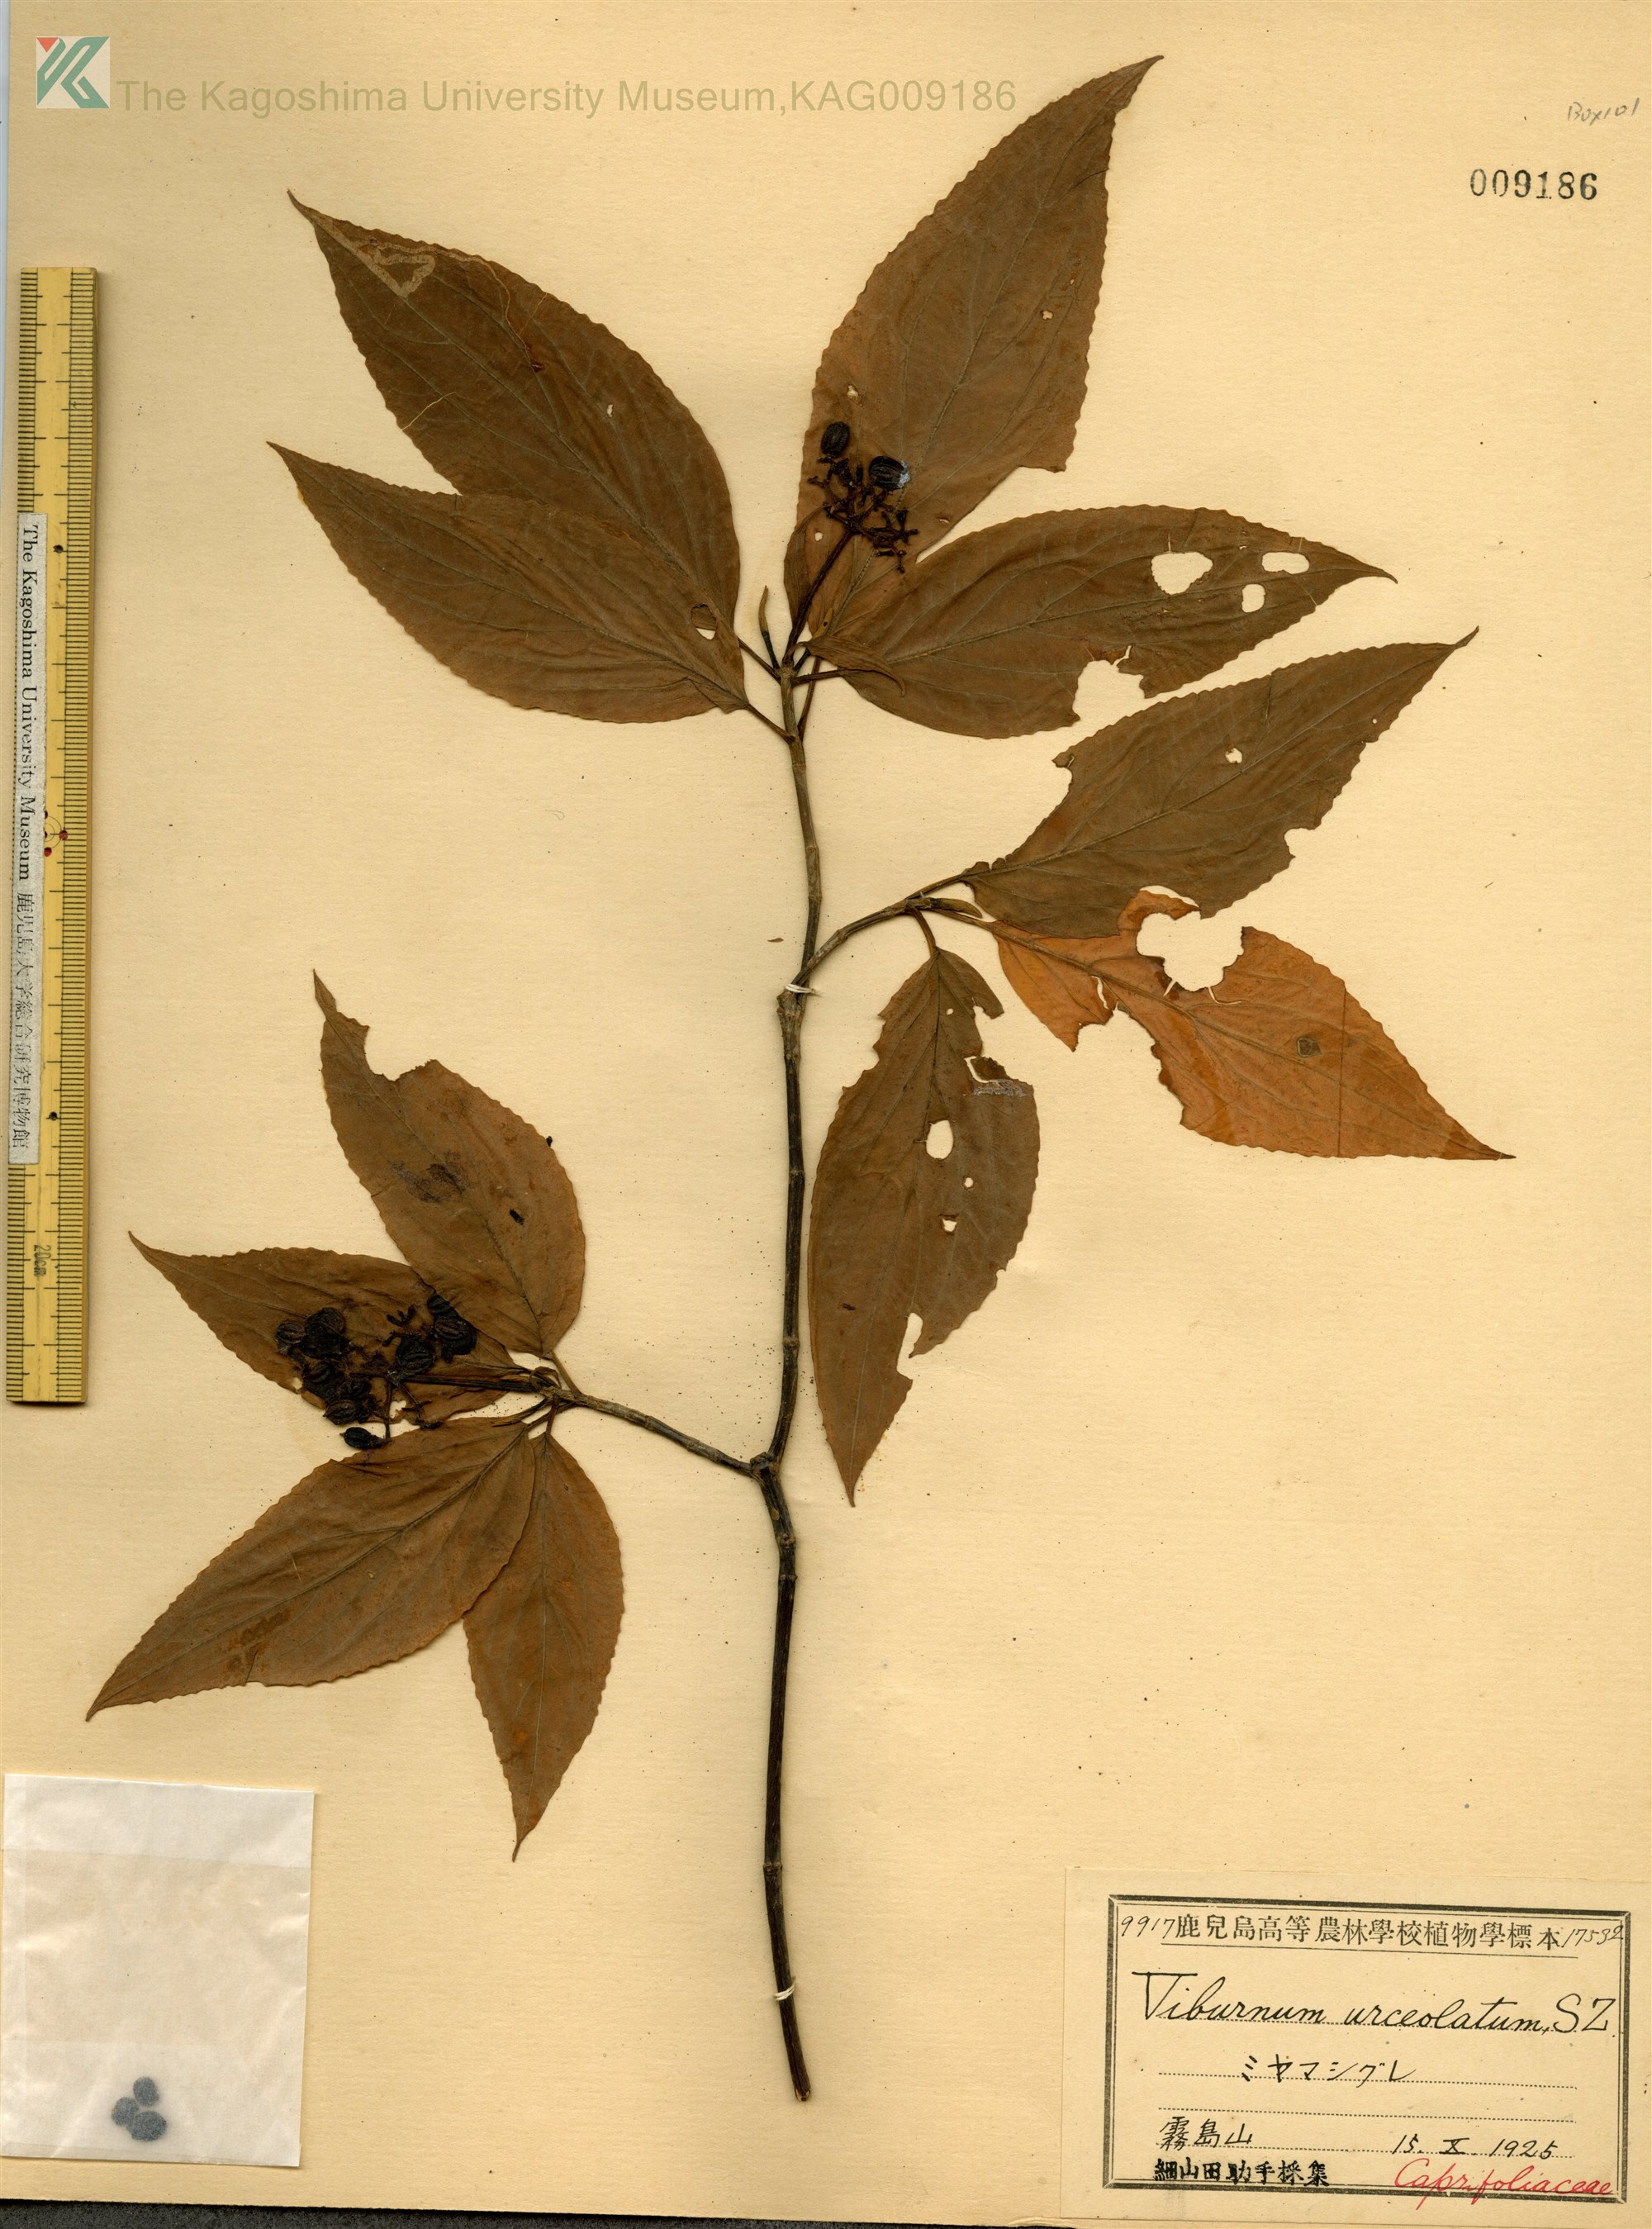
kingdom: Plantae
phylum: Tracheophyta
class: Magnoliopsida
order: Dipsacales
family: Viburnaceae
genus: Viburnum
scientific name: Viburnum urceolatum
